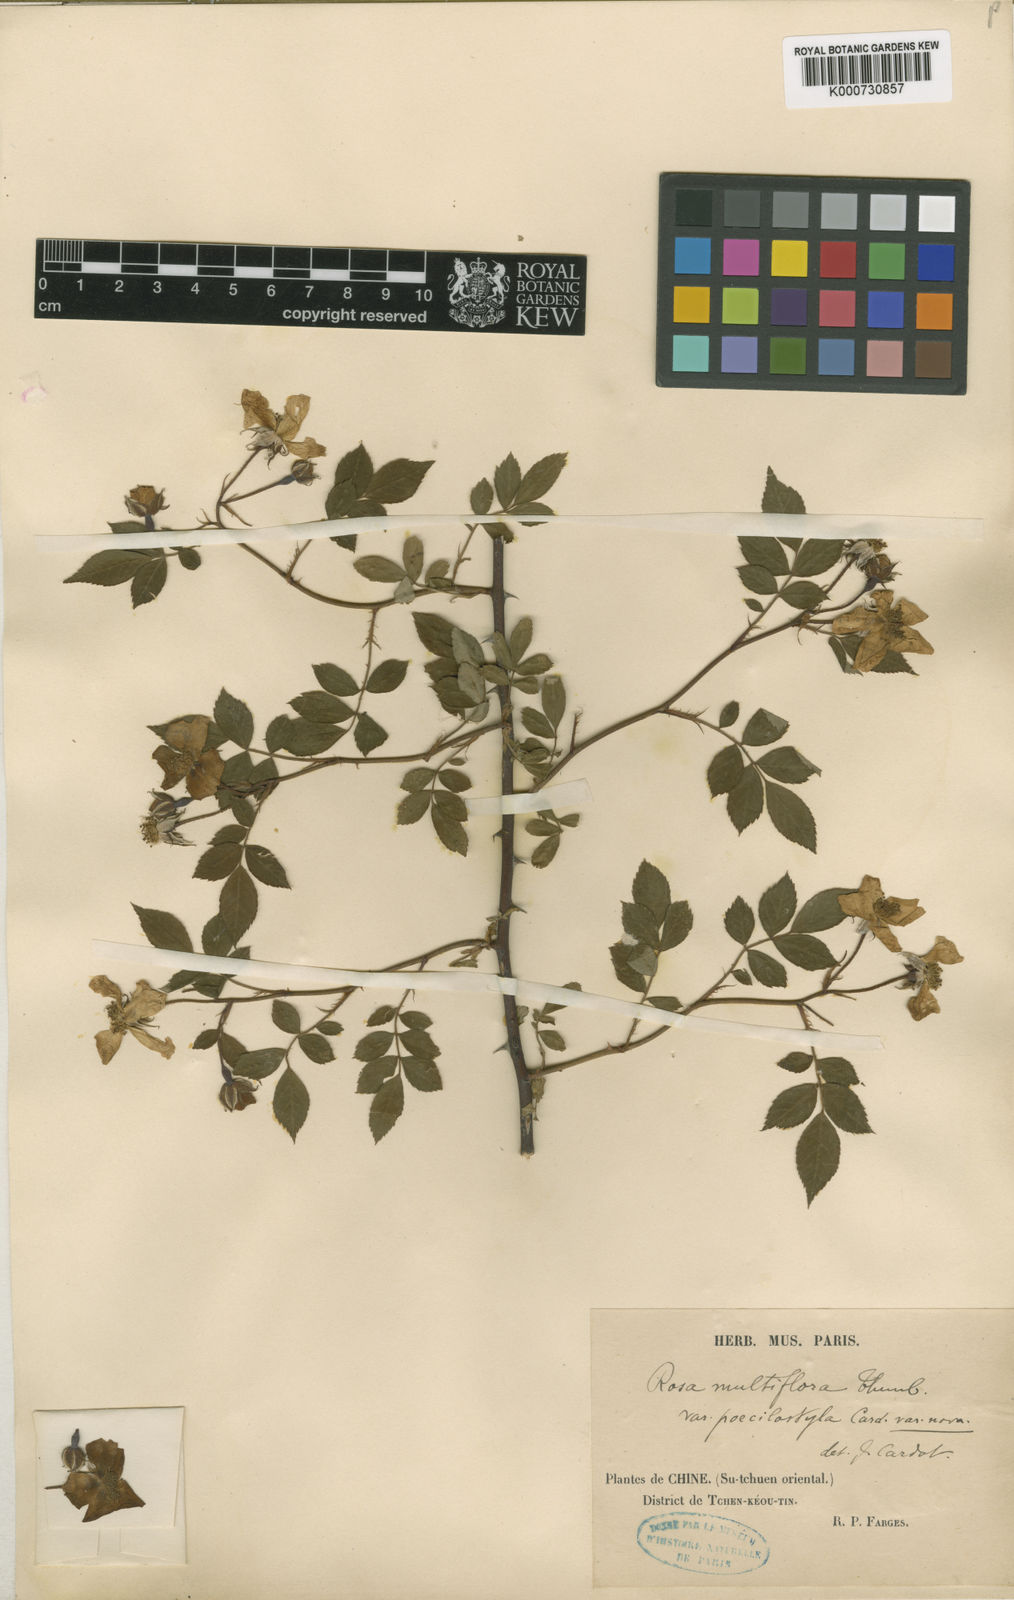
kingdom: Plantae
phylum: Tracheophyta
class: Magnoliopsida
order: Rosales
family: Rosaceae
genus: Rosa
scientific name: Rosa
